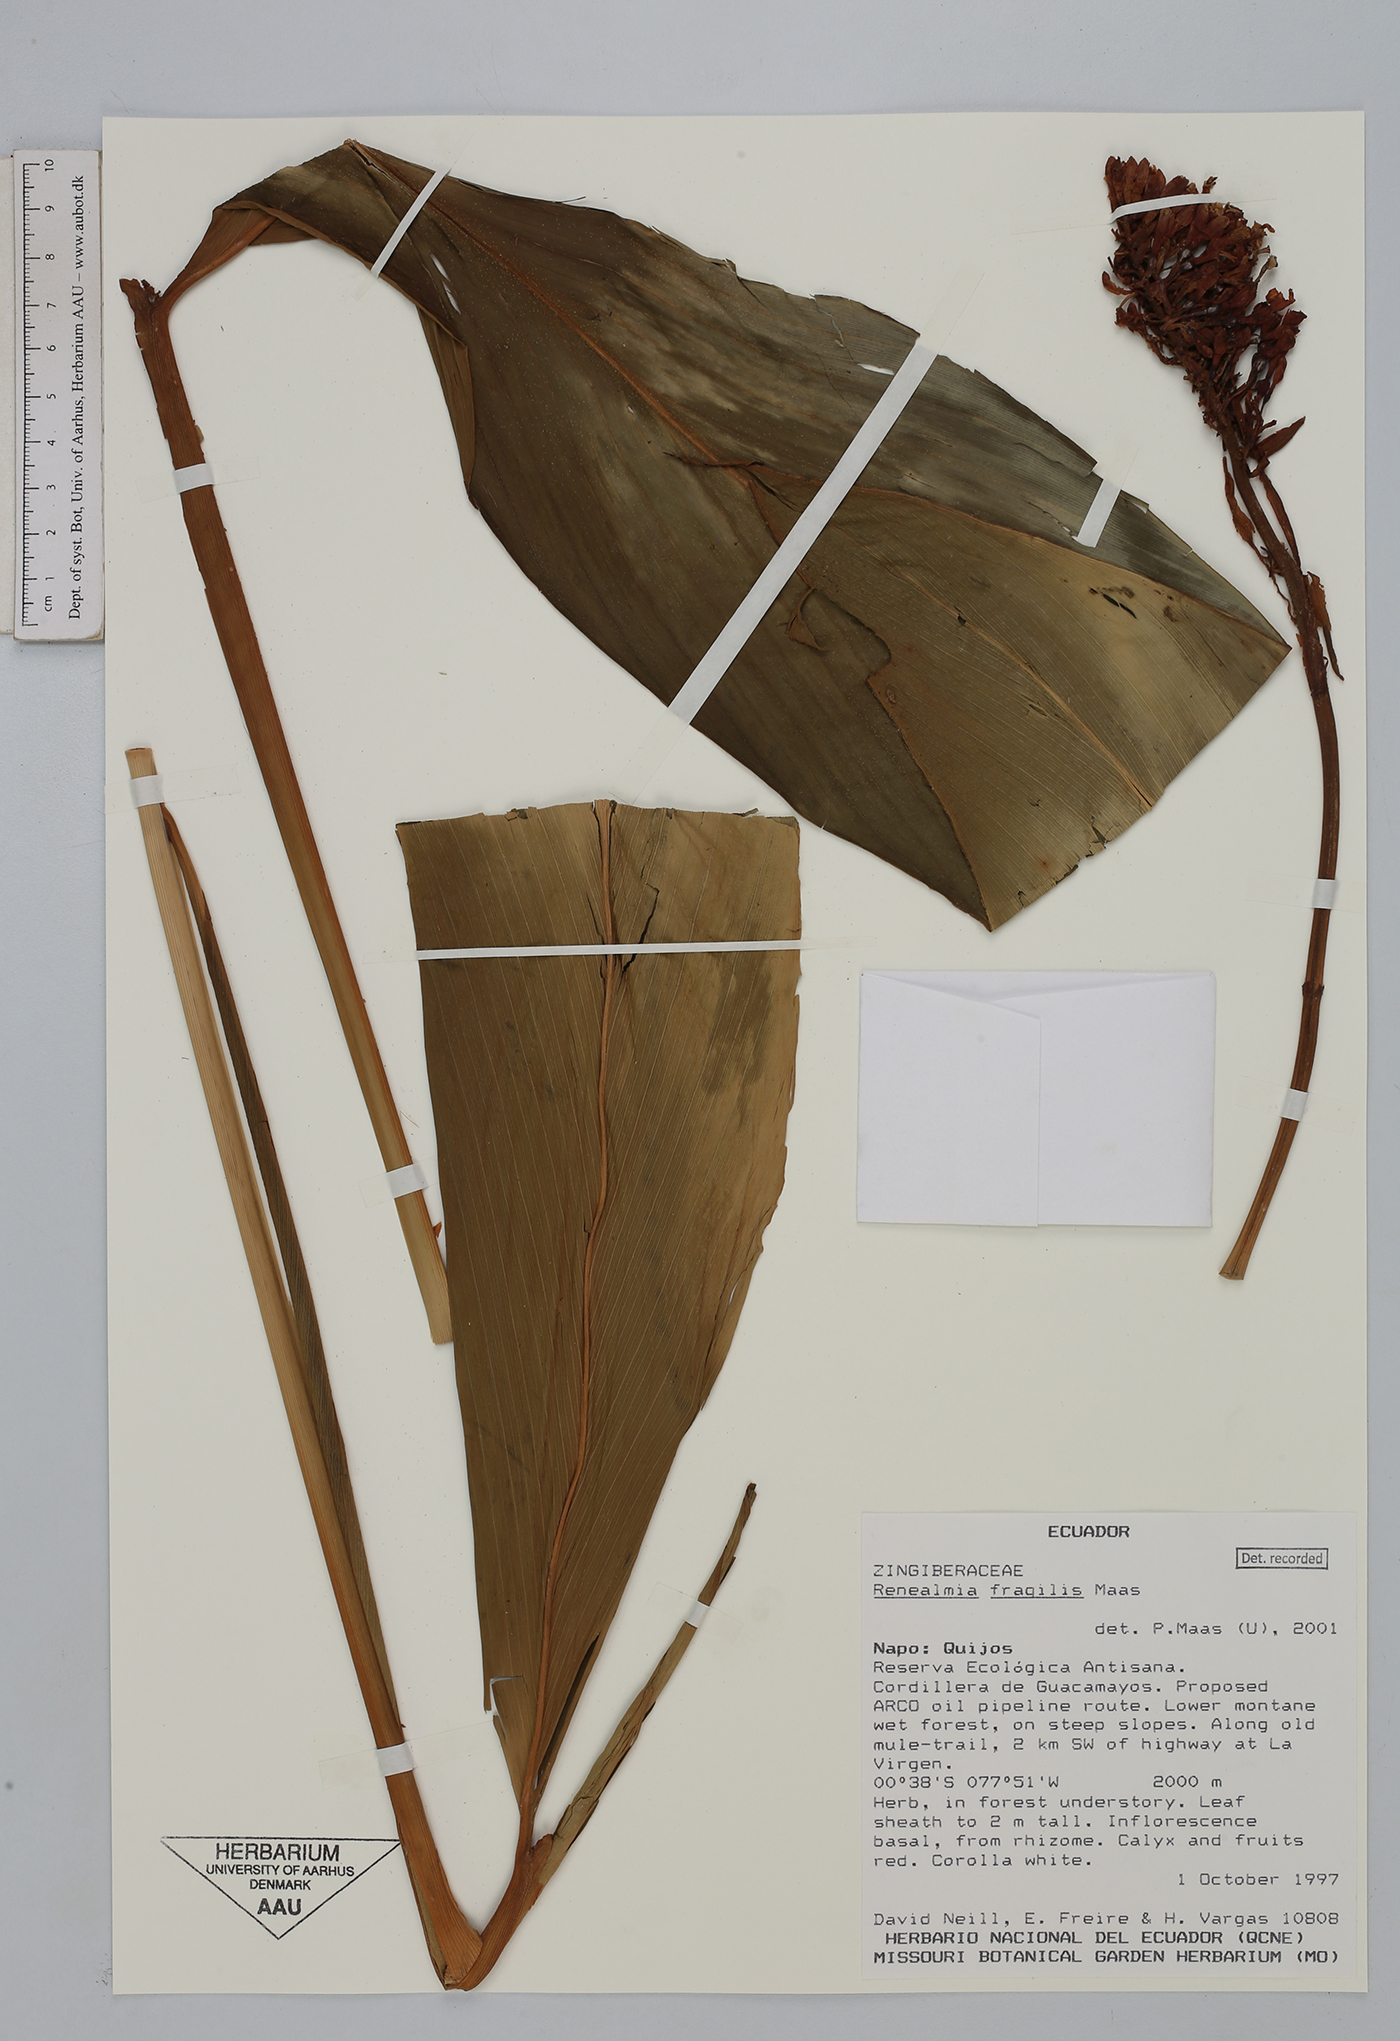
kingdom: Plantae
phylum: Tracheophyta
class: Liliopsida
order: Zingiberales
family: Zingiberaceae
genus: Renealmia
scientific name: Renealmia fragilis
